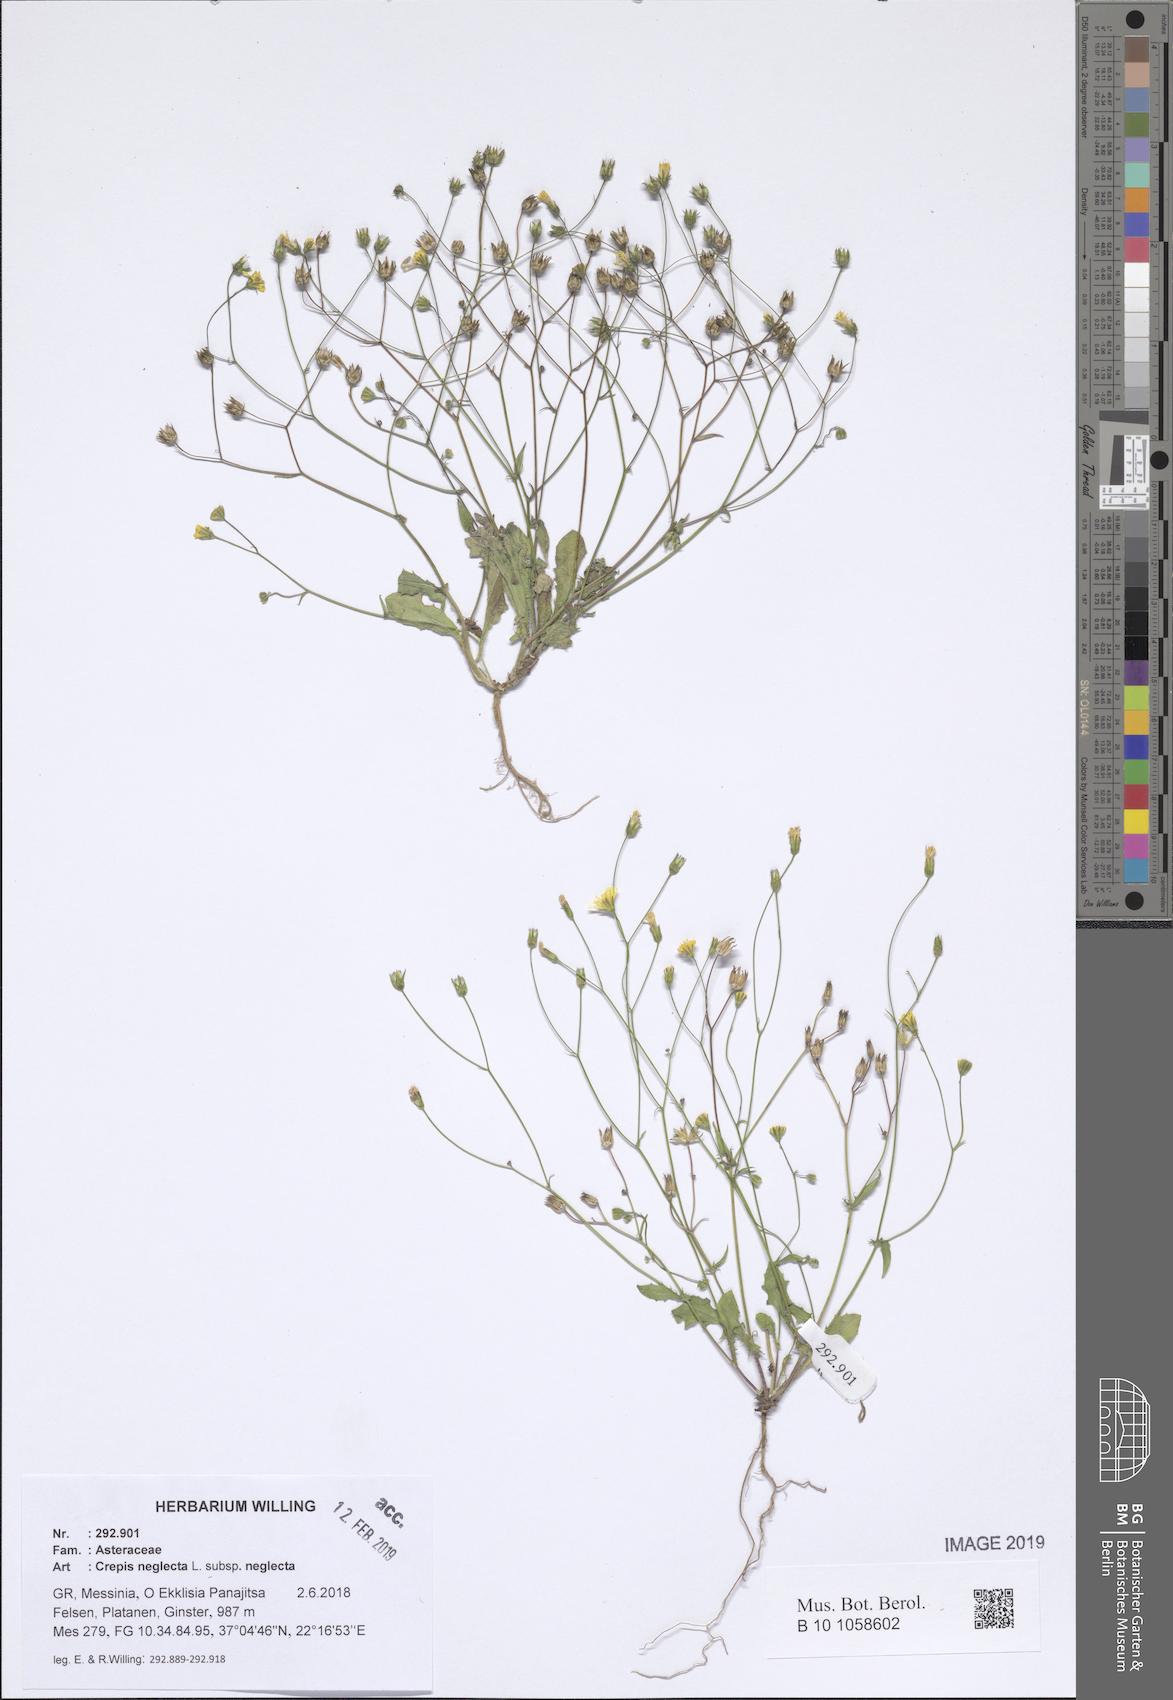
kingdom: Plantae
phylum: Tracheophyta
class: Magnoliopsida
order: Asterales
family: Asteraceae
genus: Crepis
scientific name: Crepis neglecta
